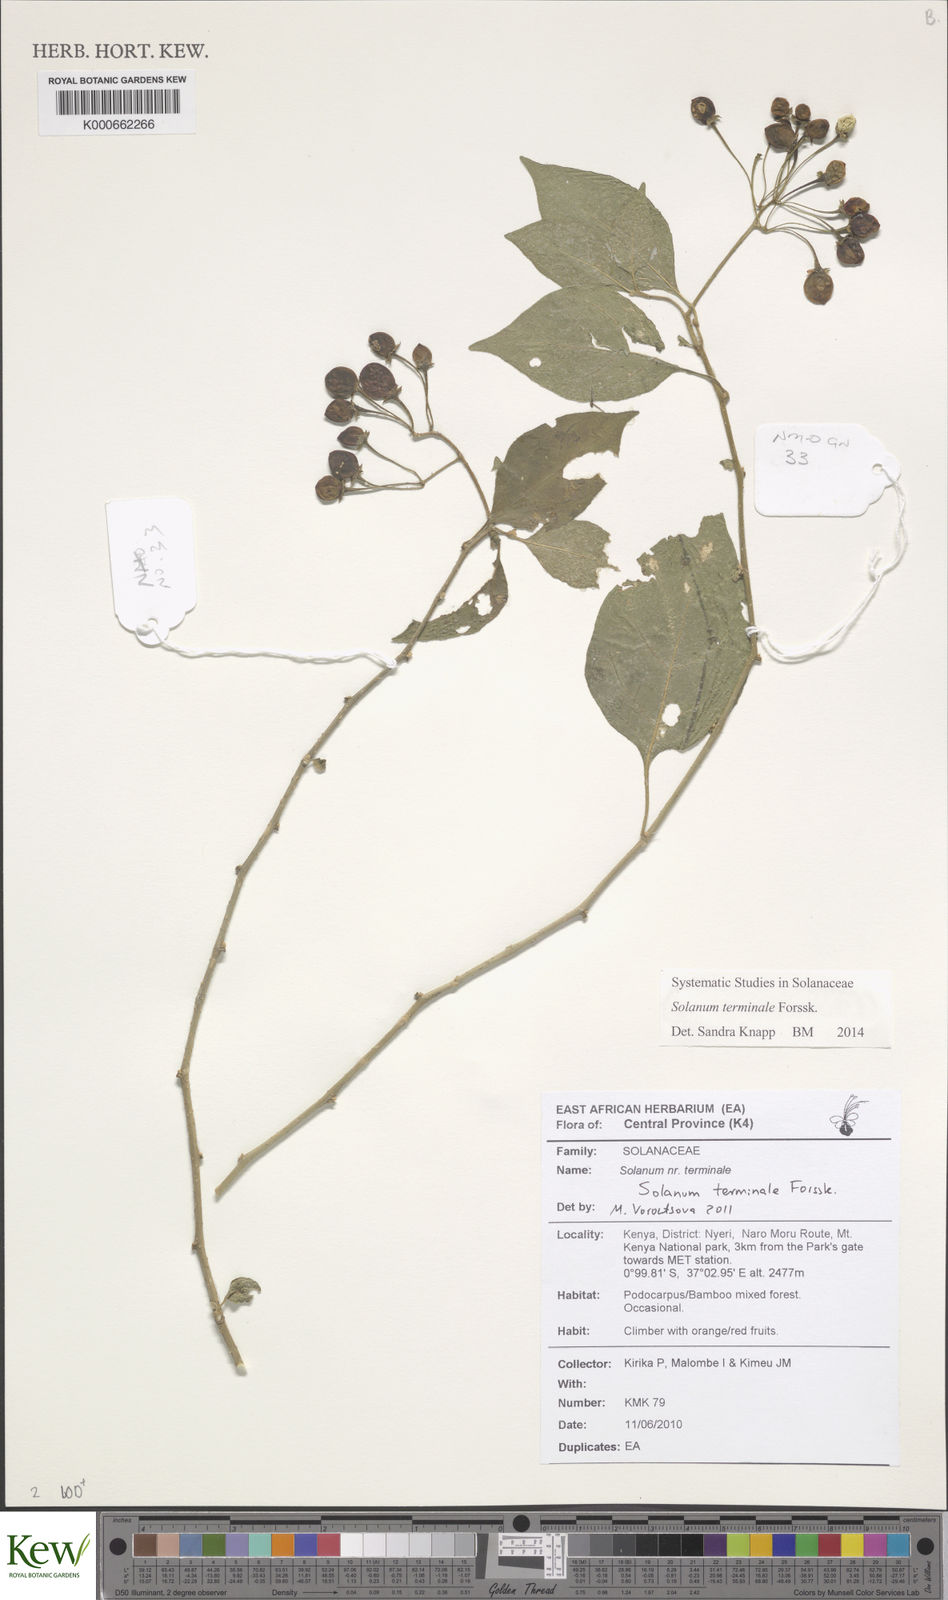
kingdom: Plantae
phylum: Tracheophyta
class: Magnoliopsida
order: Solanales
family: Solanaceae
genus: Solanum
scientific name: Solanum terminale
